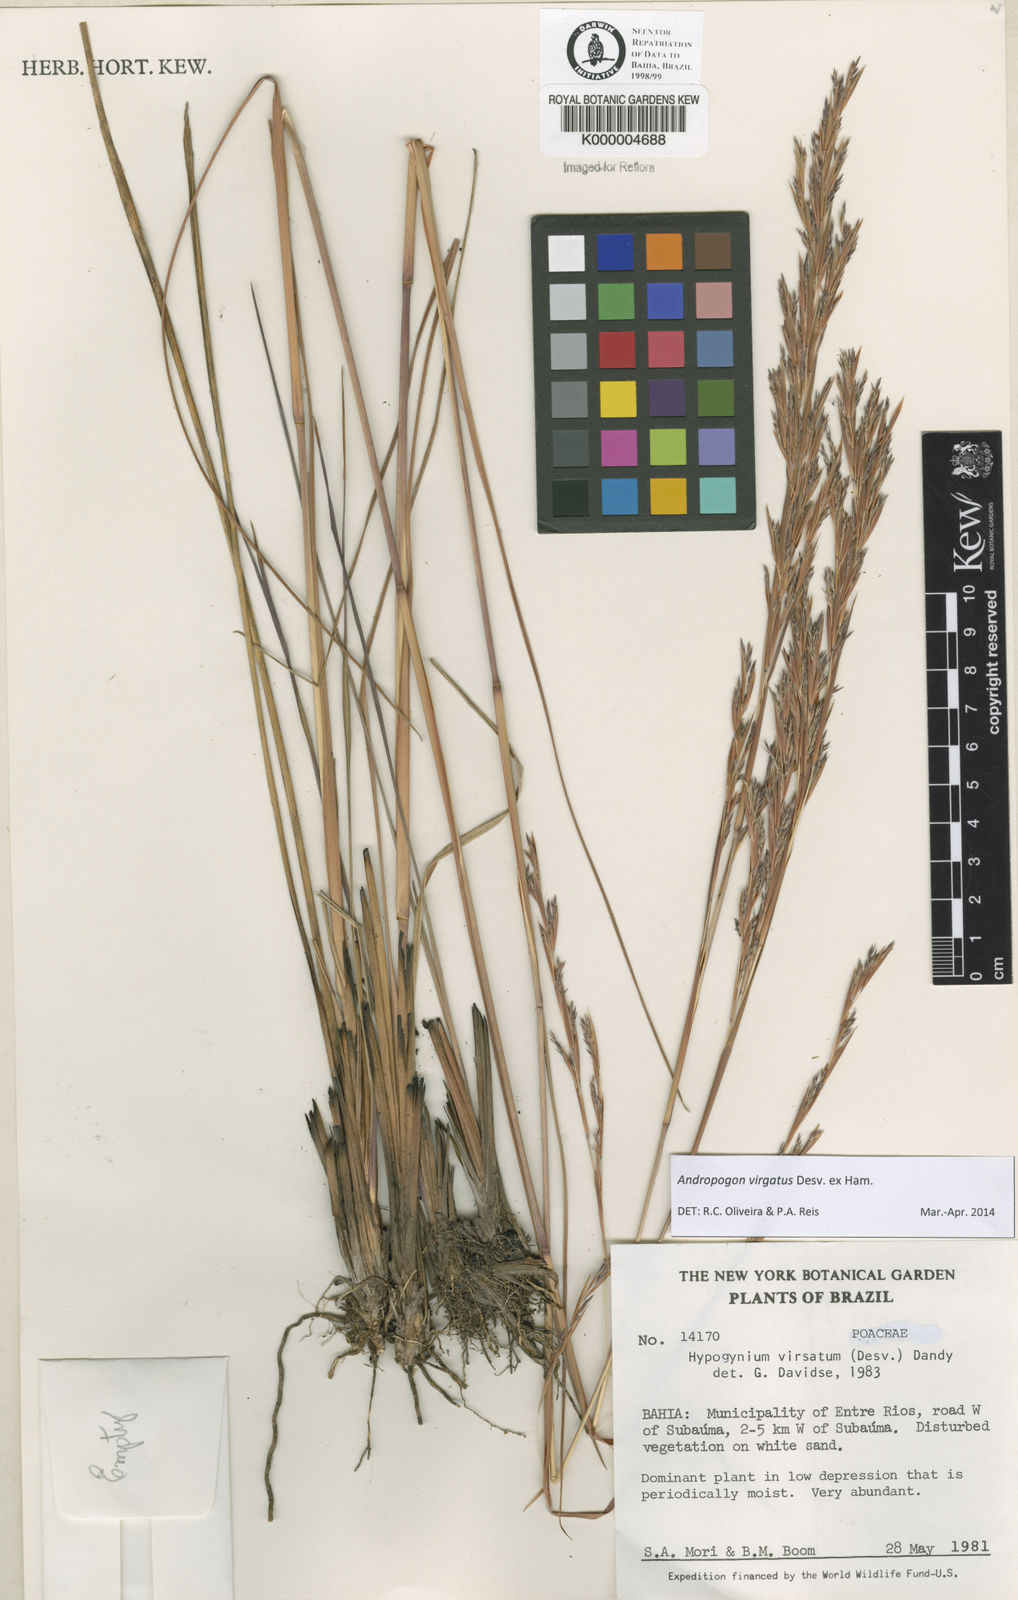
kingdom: Plantae
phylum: Tracheophyta
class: Liliopsida
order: Poales
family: Poaceae
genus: Andropogon
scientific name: Andropogon virgatus
